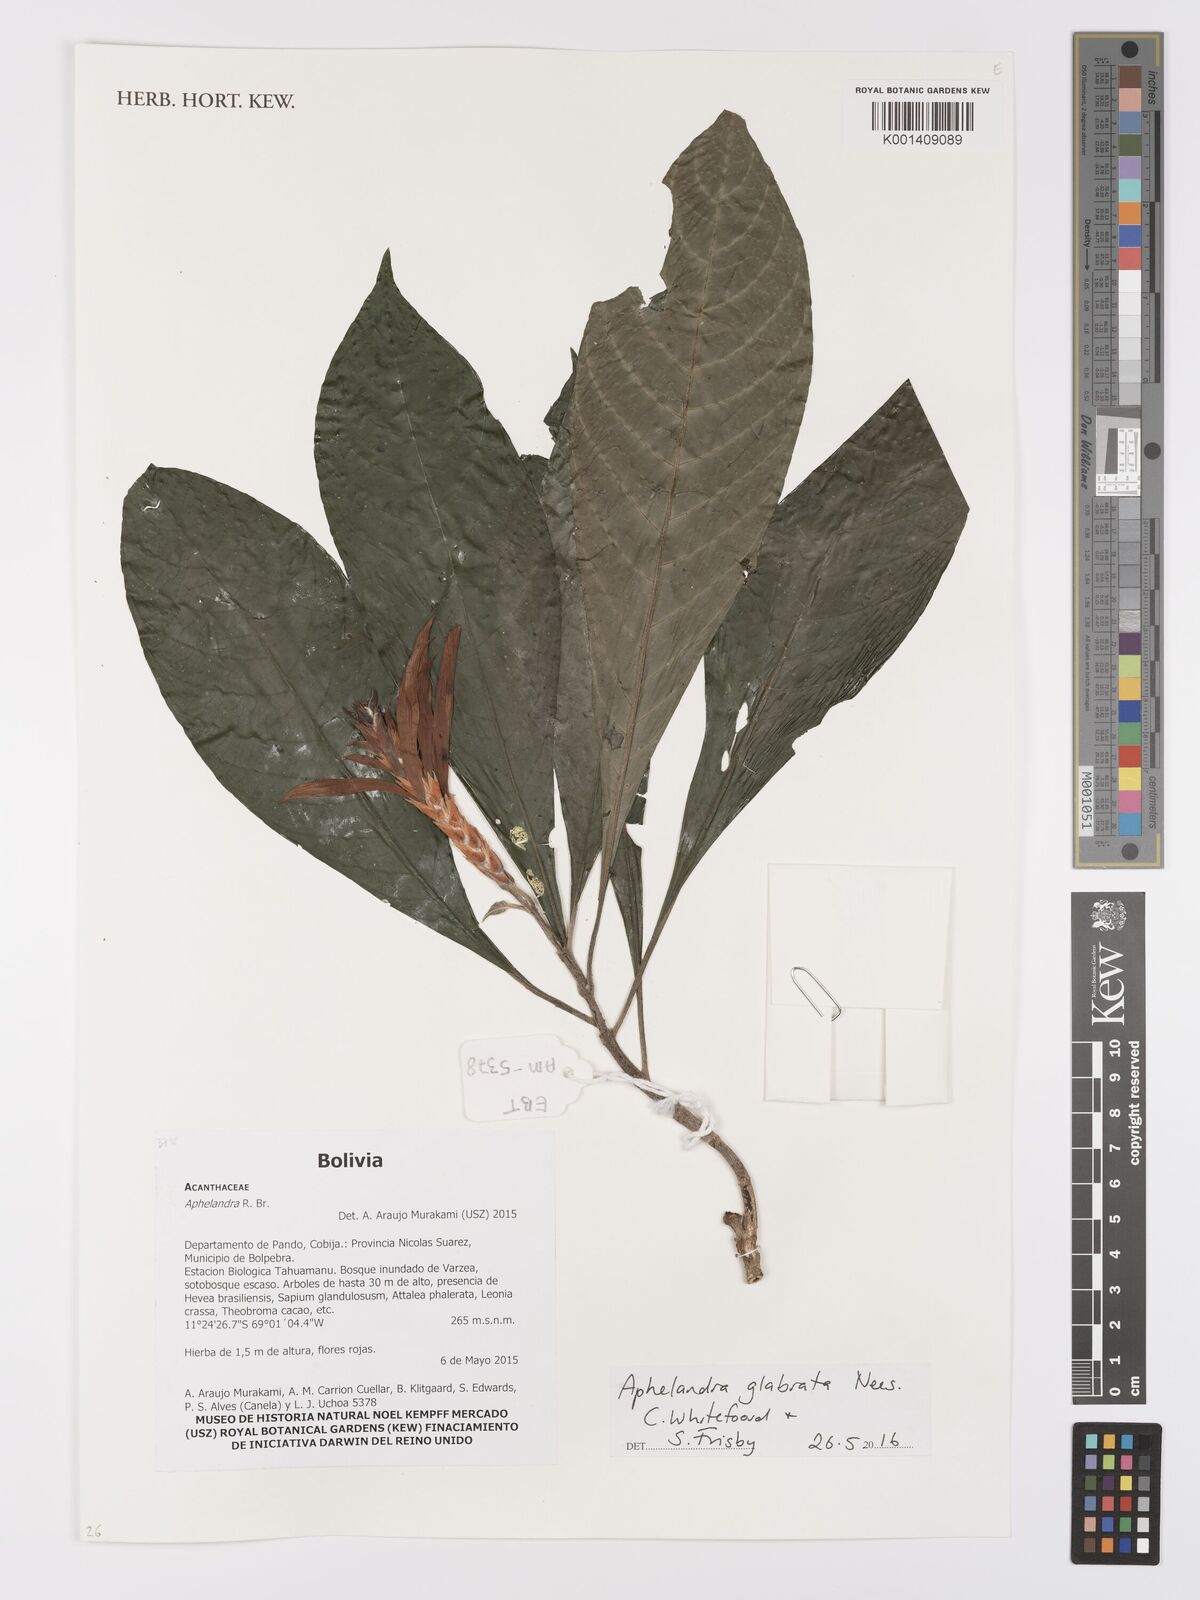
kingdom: Plantae
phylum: Tracheophyta
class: Magnoliopsida
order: Lamiales
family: Acanthaceae
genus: Aphelandra
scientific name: Aphelandra glabrata
